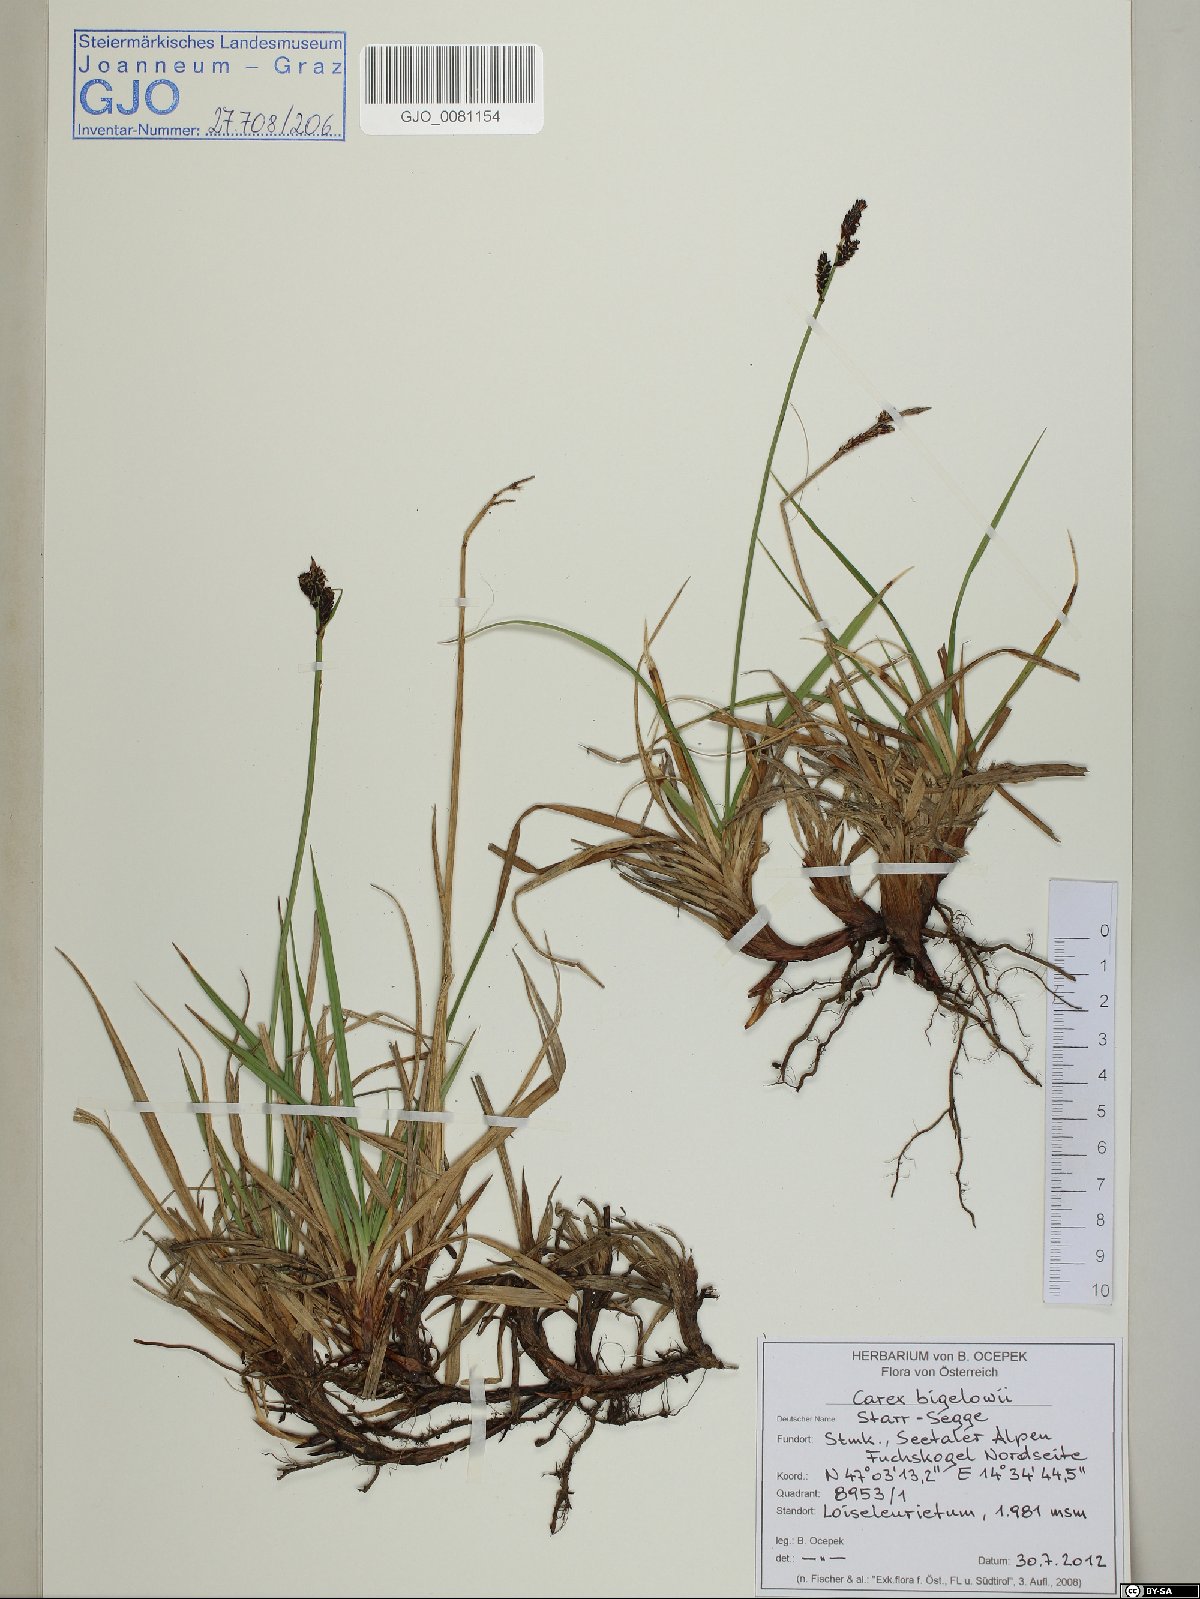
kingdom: Plantae
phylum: Tracheophyta
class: Liliopsida
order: Poales
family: Cyperaceae
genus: Carex
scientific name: Carex bigelowii
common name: Stiff sedge
